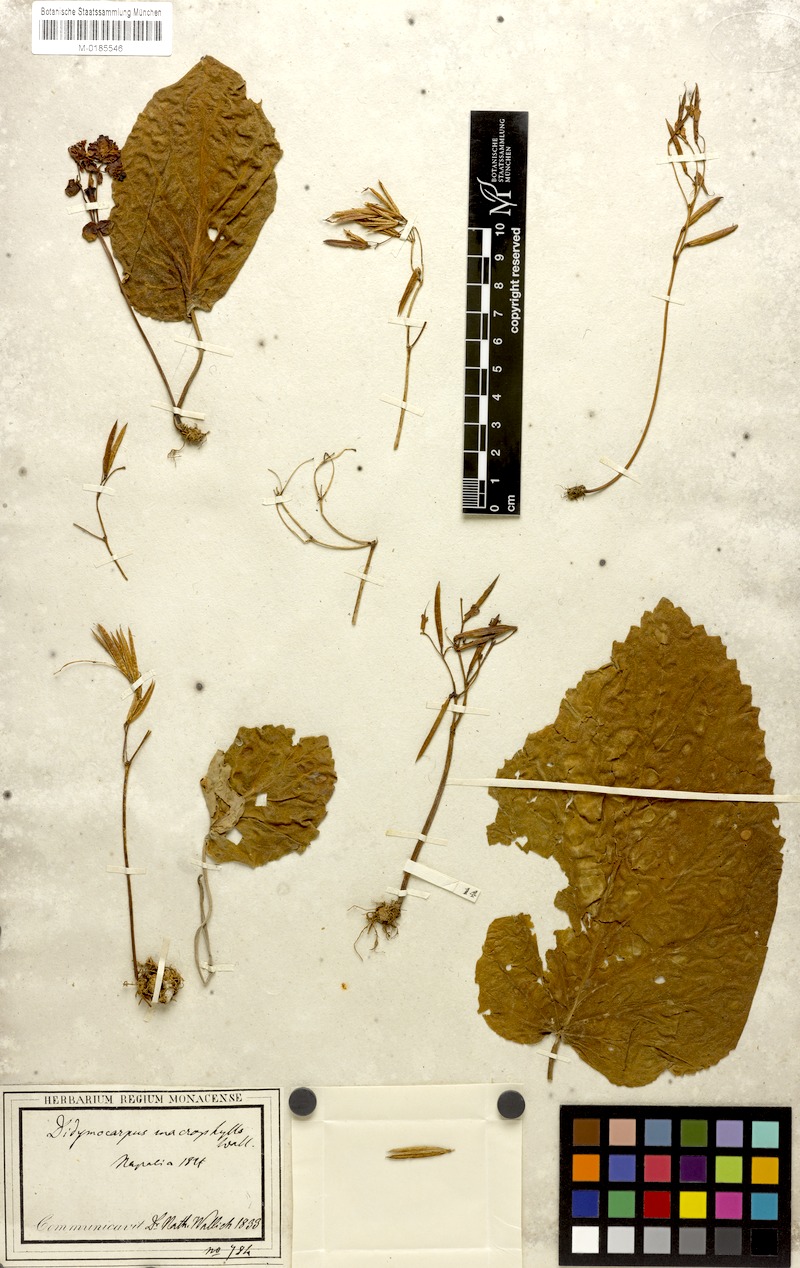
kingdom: Plantae
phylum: Tracheophyta
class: Magnoliopsida
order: Lamiales
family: Gesneriaceae
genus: Didymocarpus
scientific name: Didymocarpus macrophyllus
